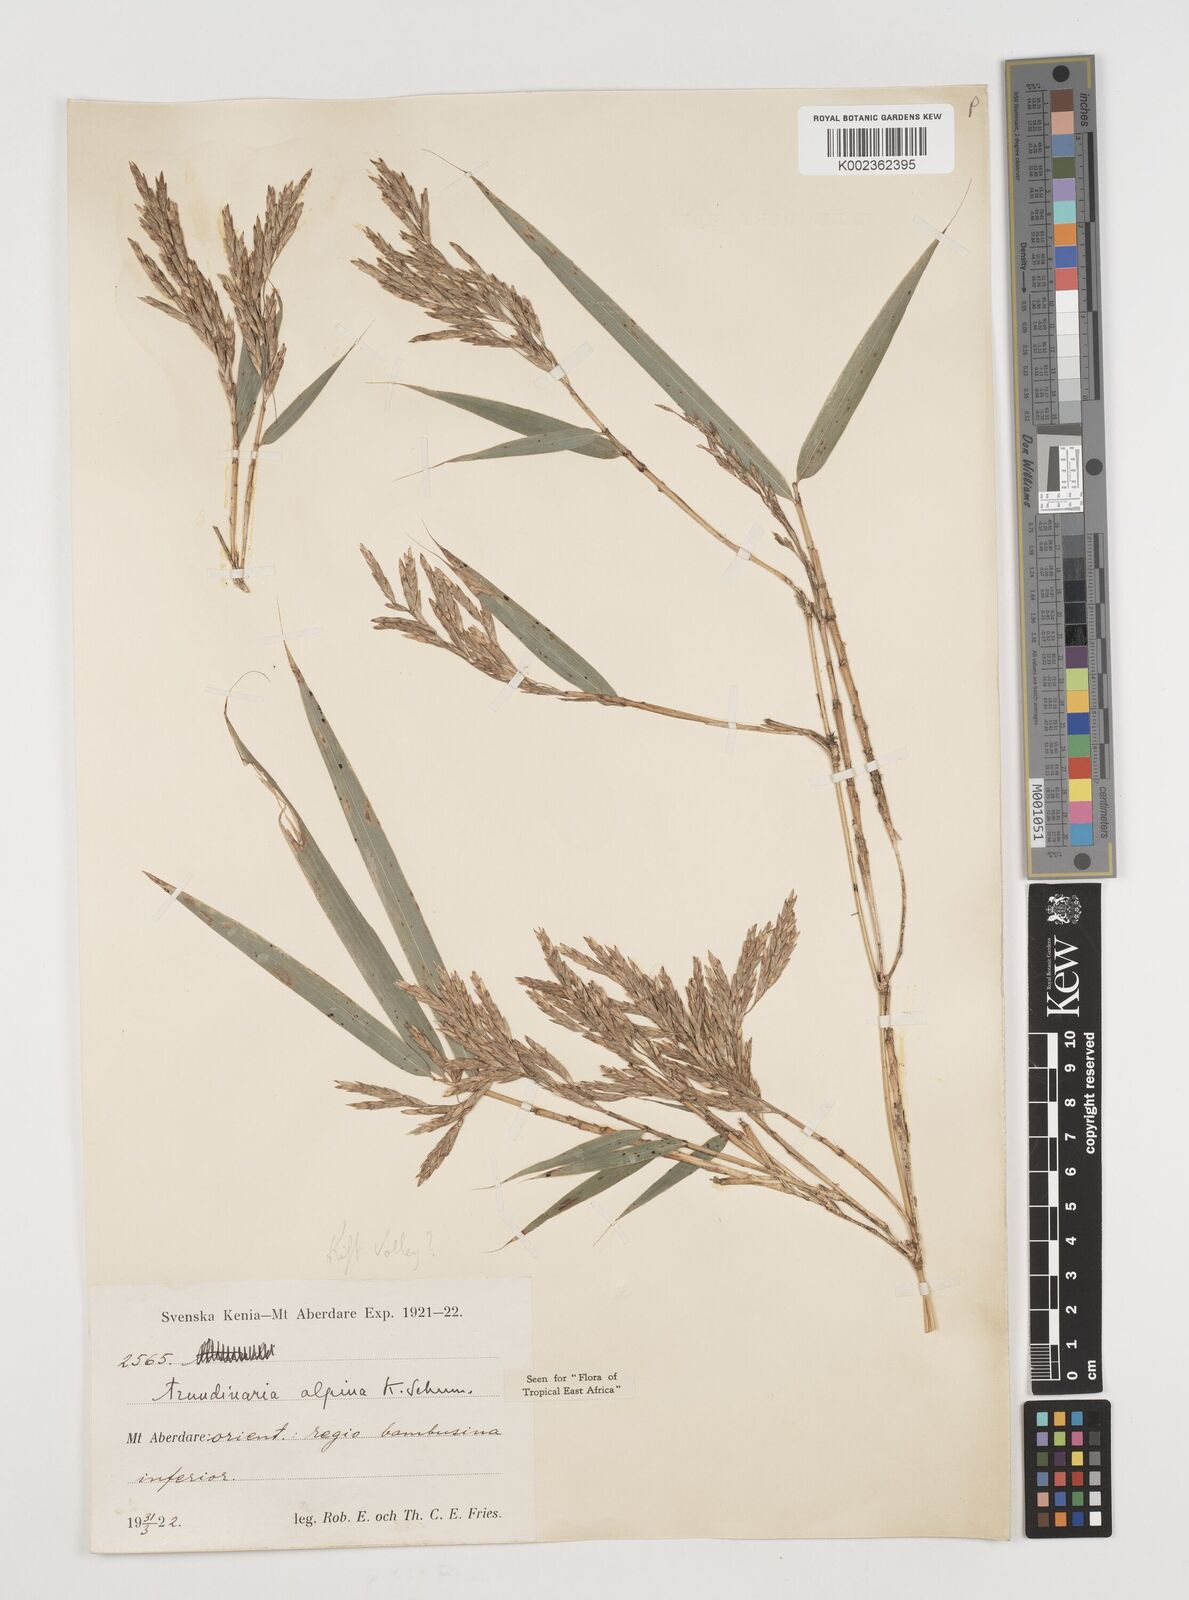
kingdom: Plantae
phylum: Tracheophyta
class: Liliopsida
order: Poales
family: Poaceae
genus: Oldeania
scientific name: Oldeania alpina
